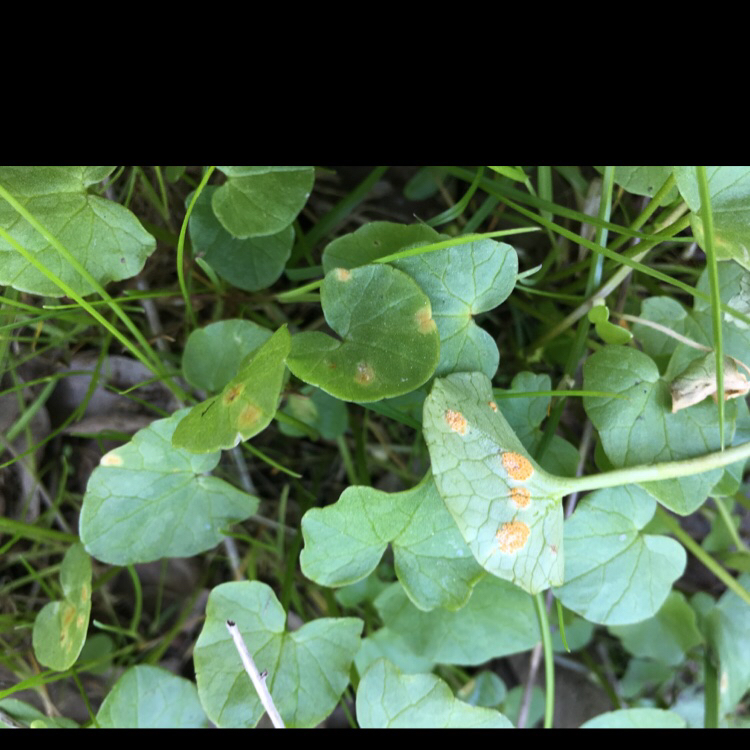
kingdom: Fungi
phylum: Basidiomycota
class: Pucciniomycetes
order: Pucciniales
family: Pucciniaceae
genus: Uromyces
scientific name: Uromyces dactylidis
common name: ranunkel-encellerust
